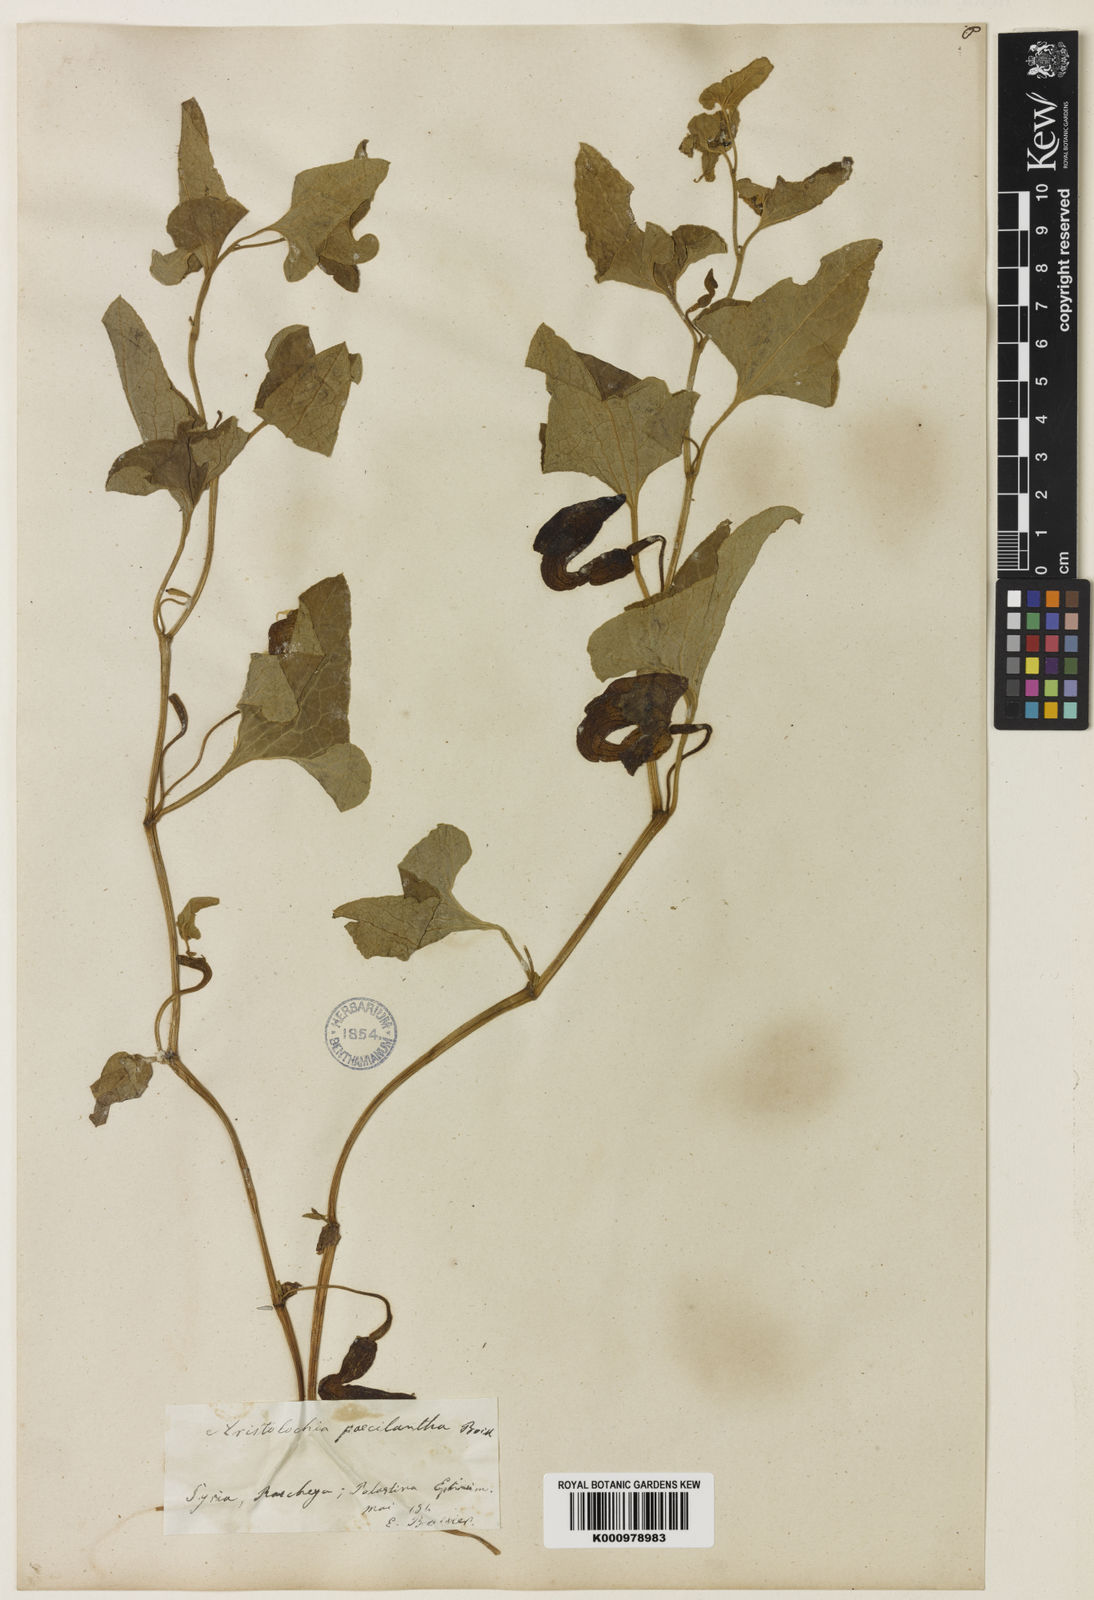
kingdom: Plantae
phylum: Tracheophyta
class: Magnoliopsida
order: Piperales
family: Aristolochiaceae
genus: Aristolochia
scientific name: Aristolochia paecilantha
